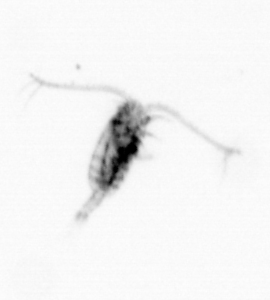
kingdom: Animalia
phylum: Arthropoda
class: Copepoda
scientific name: Copepoda
